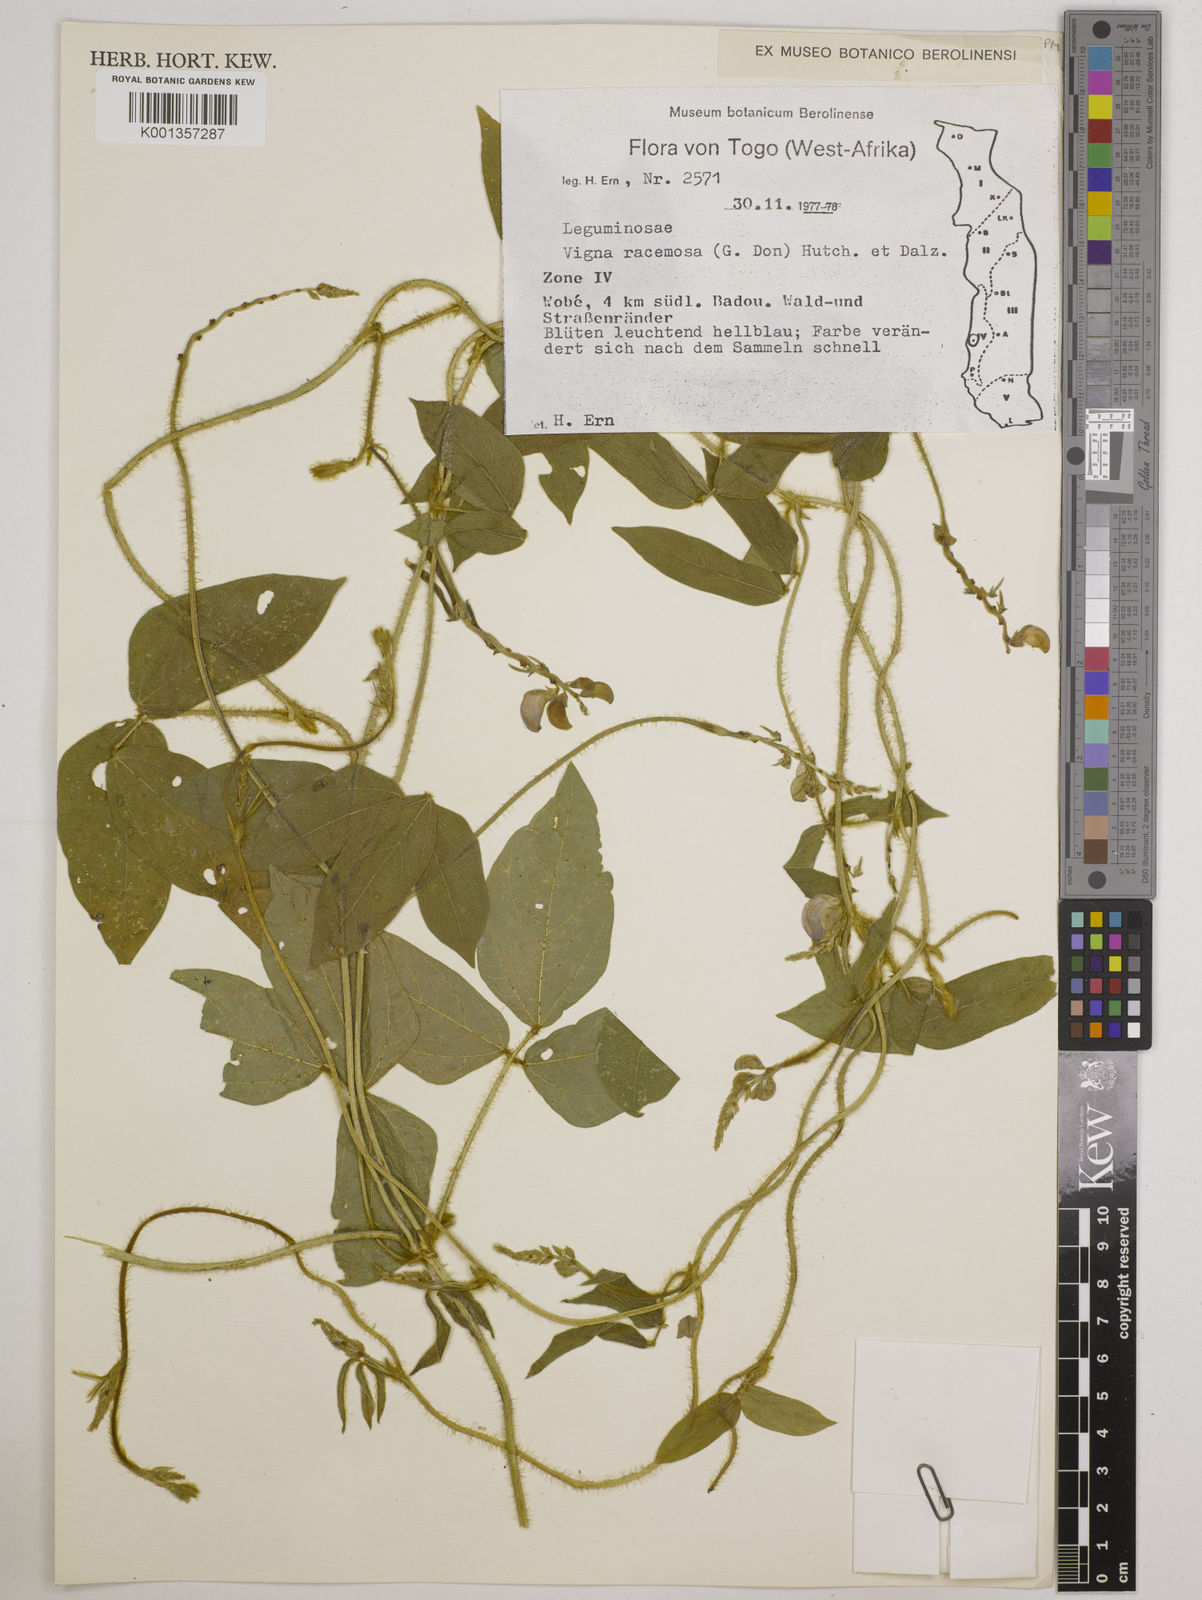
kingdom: Plantae
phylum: Tracheophyta
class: Magnoliopsida
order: Fabales
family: Fabaceae
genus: Vigna
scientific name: Vigna racemosa
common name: Beans not eaten
